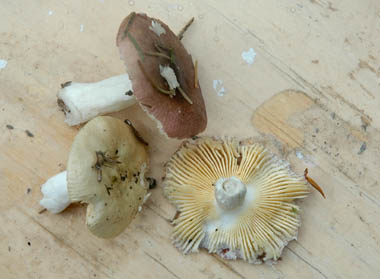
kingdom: Fungi
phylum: Basidiomycota
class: Agaricomycetes
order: Russulales
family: Russulaceae
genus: Russula
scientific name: Russula nauseosa
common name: spinkel skørhat
